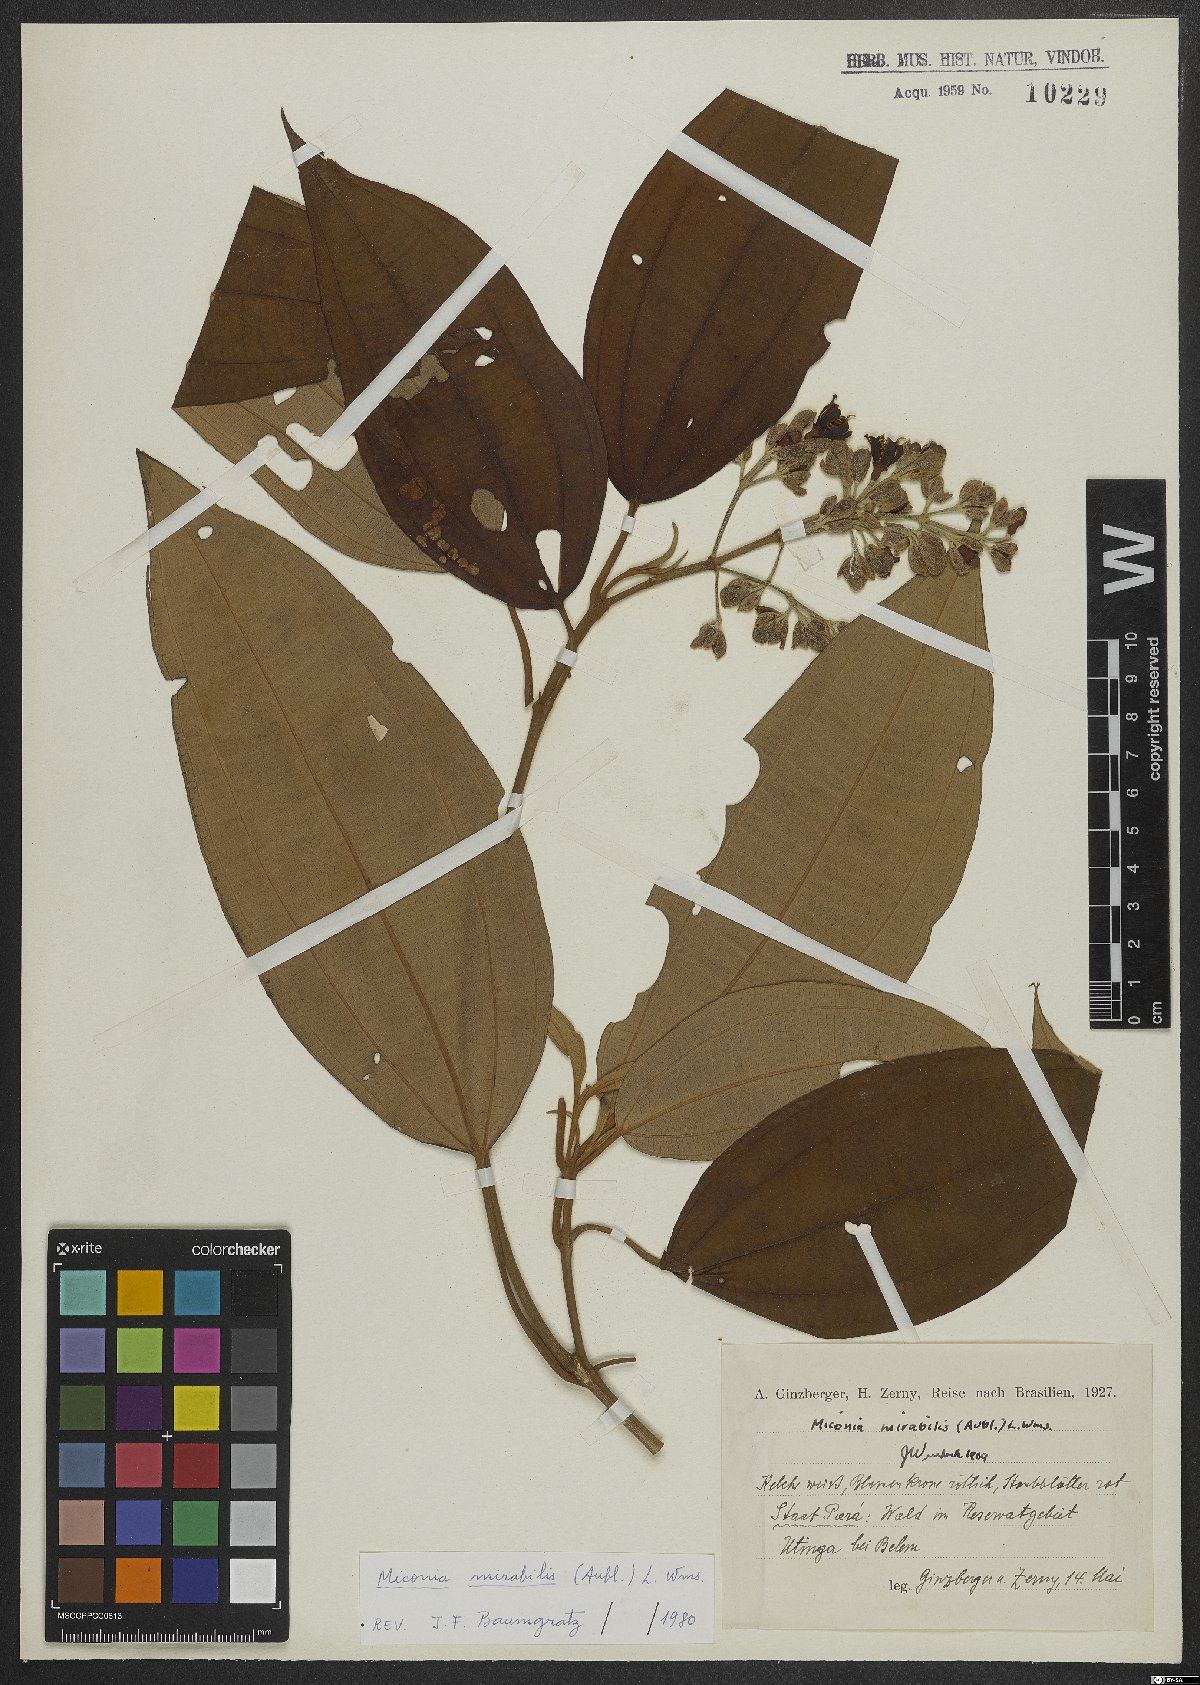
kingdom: Plantae
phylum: Tracheophyta
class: Magnoliopsida
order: Myrtales
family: Melastomataceae
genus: Miconia
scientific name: Miconia mirabilis
